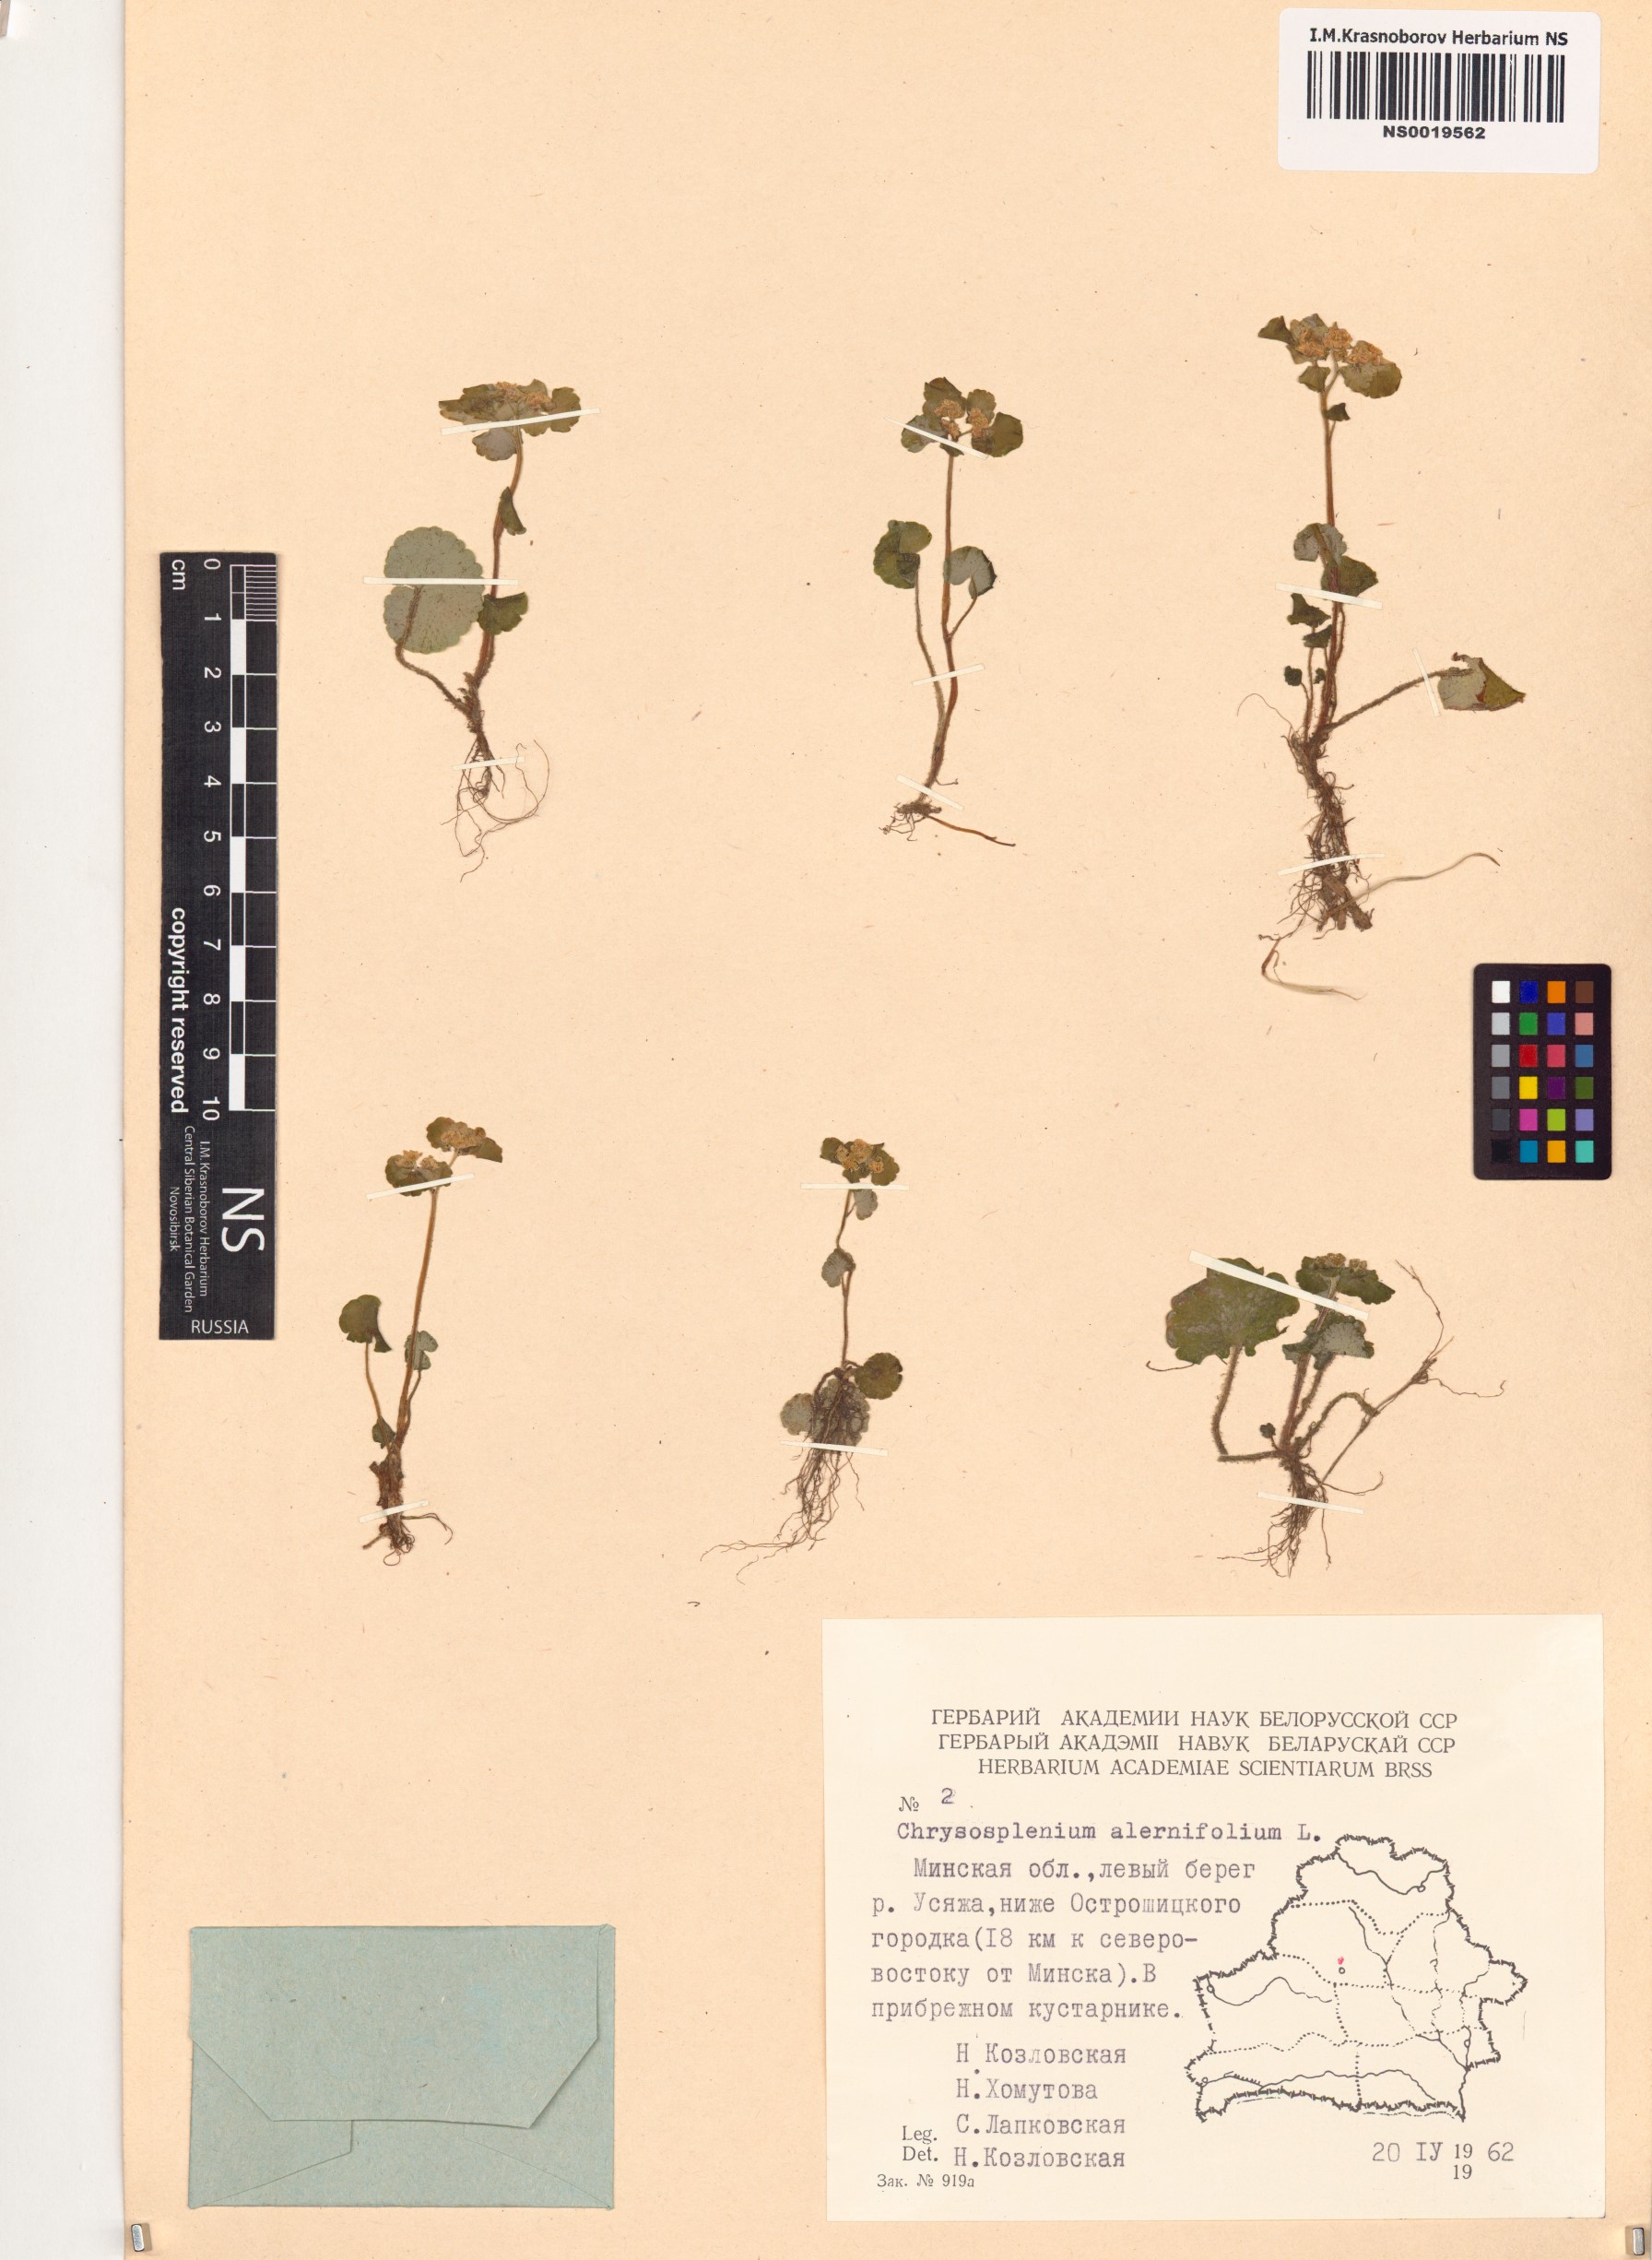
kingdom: Plantae
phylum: Tracheophyta
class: Magnoliopsida
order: Saxifragales
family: Saxifragaceae
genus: Chrysosplenium
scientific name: Chrysosplenium alternifolium
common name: Alternate-leaved golden-saxifrage
